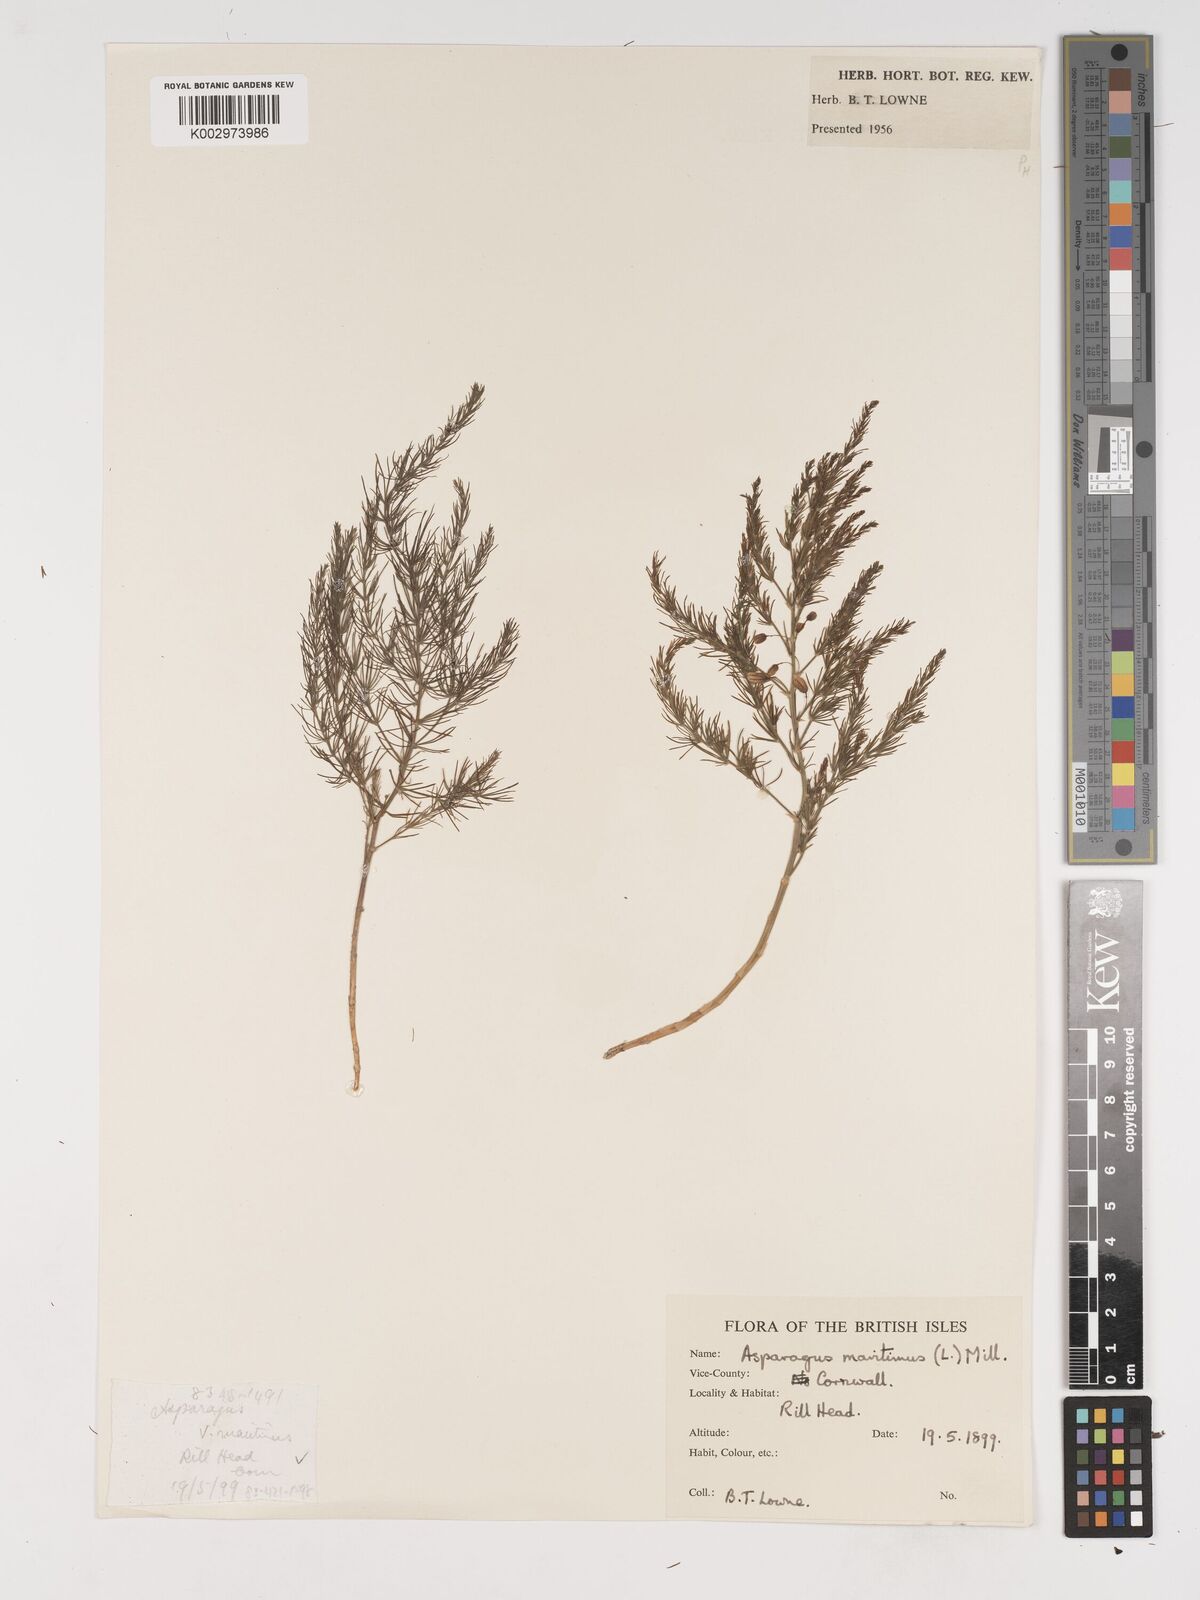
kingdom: Plantae
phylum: Tracheophyta
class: Liliopsida
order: Asparagales
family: Asparagaceae
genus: Asparagus
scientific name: Asparagus maritimus
